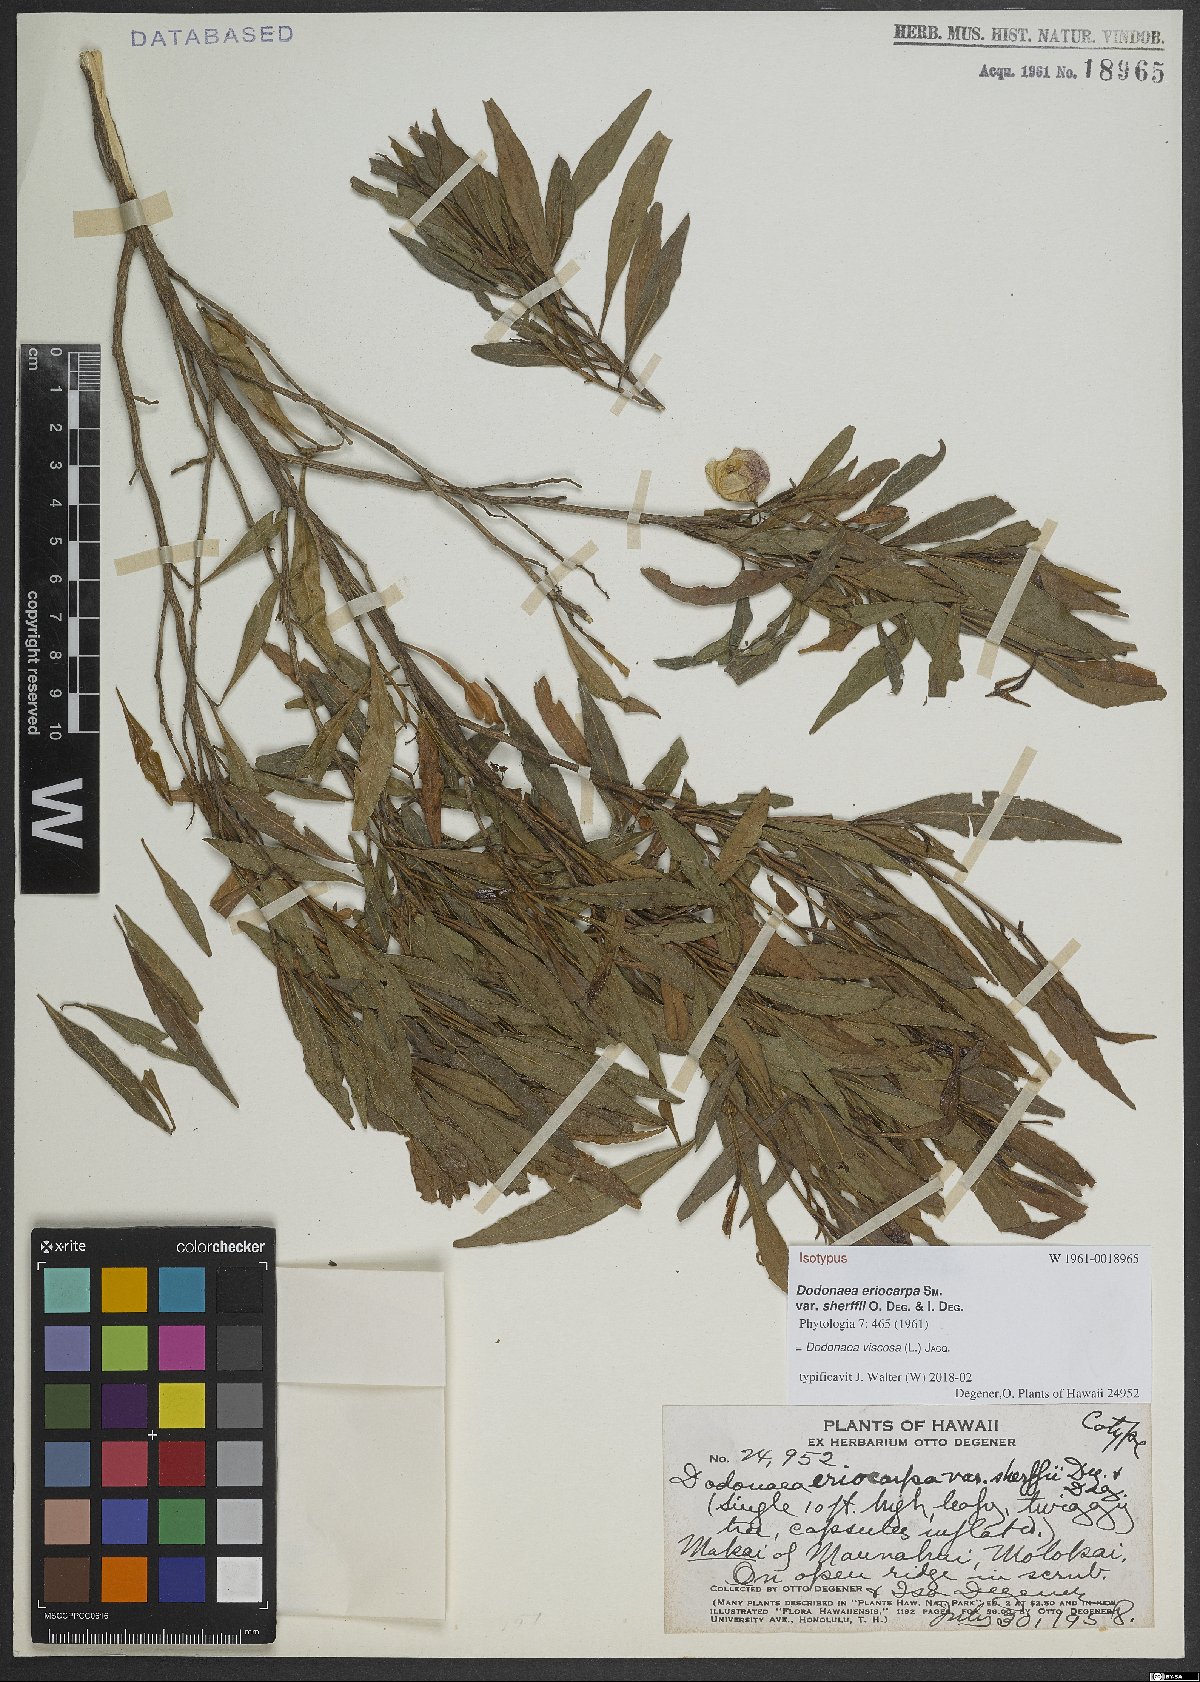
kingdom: Plantae
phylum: Tracheophyta
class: Magnoliopsida
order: Sapindales
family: Sapindaceae
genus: Dodonaea
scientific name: Dodonaea viscosa
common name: Hopbush
